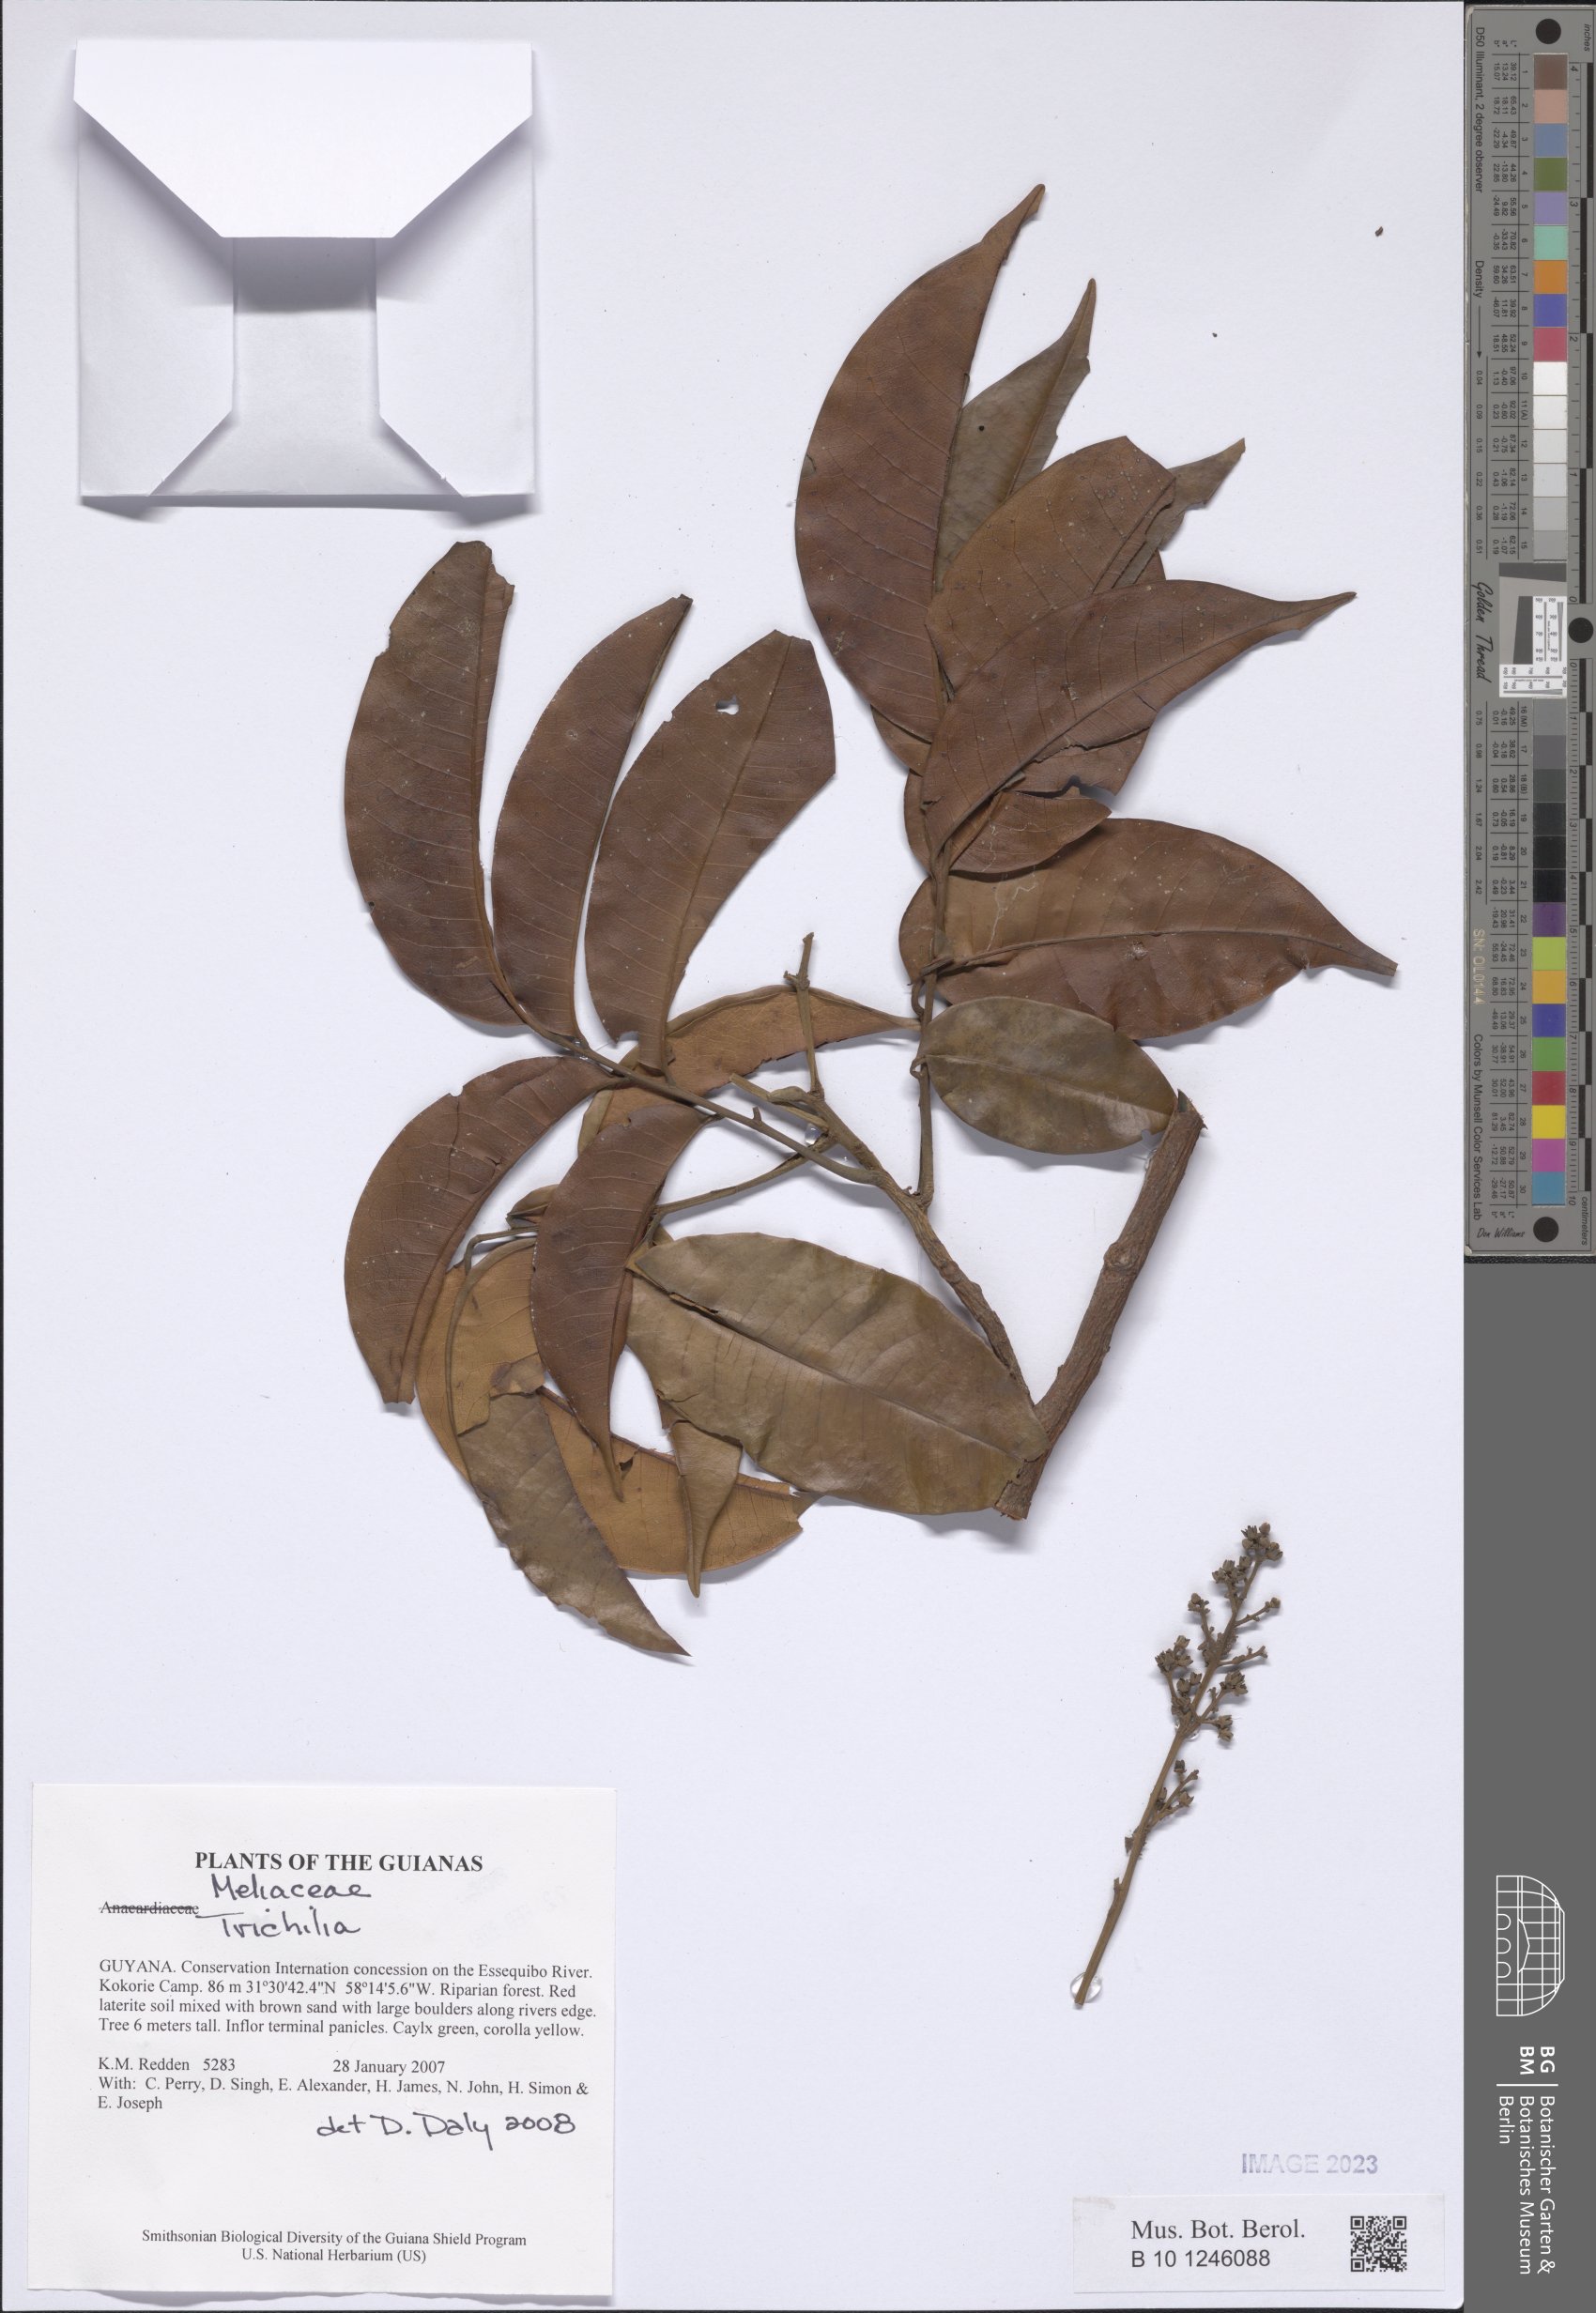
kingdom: Plantae
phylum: Tracheophyta
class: Magnoliopsida
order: Sapindales
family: Meliaceae
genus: Trichilia
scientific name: Trichilia
